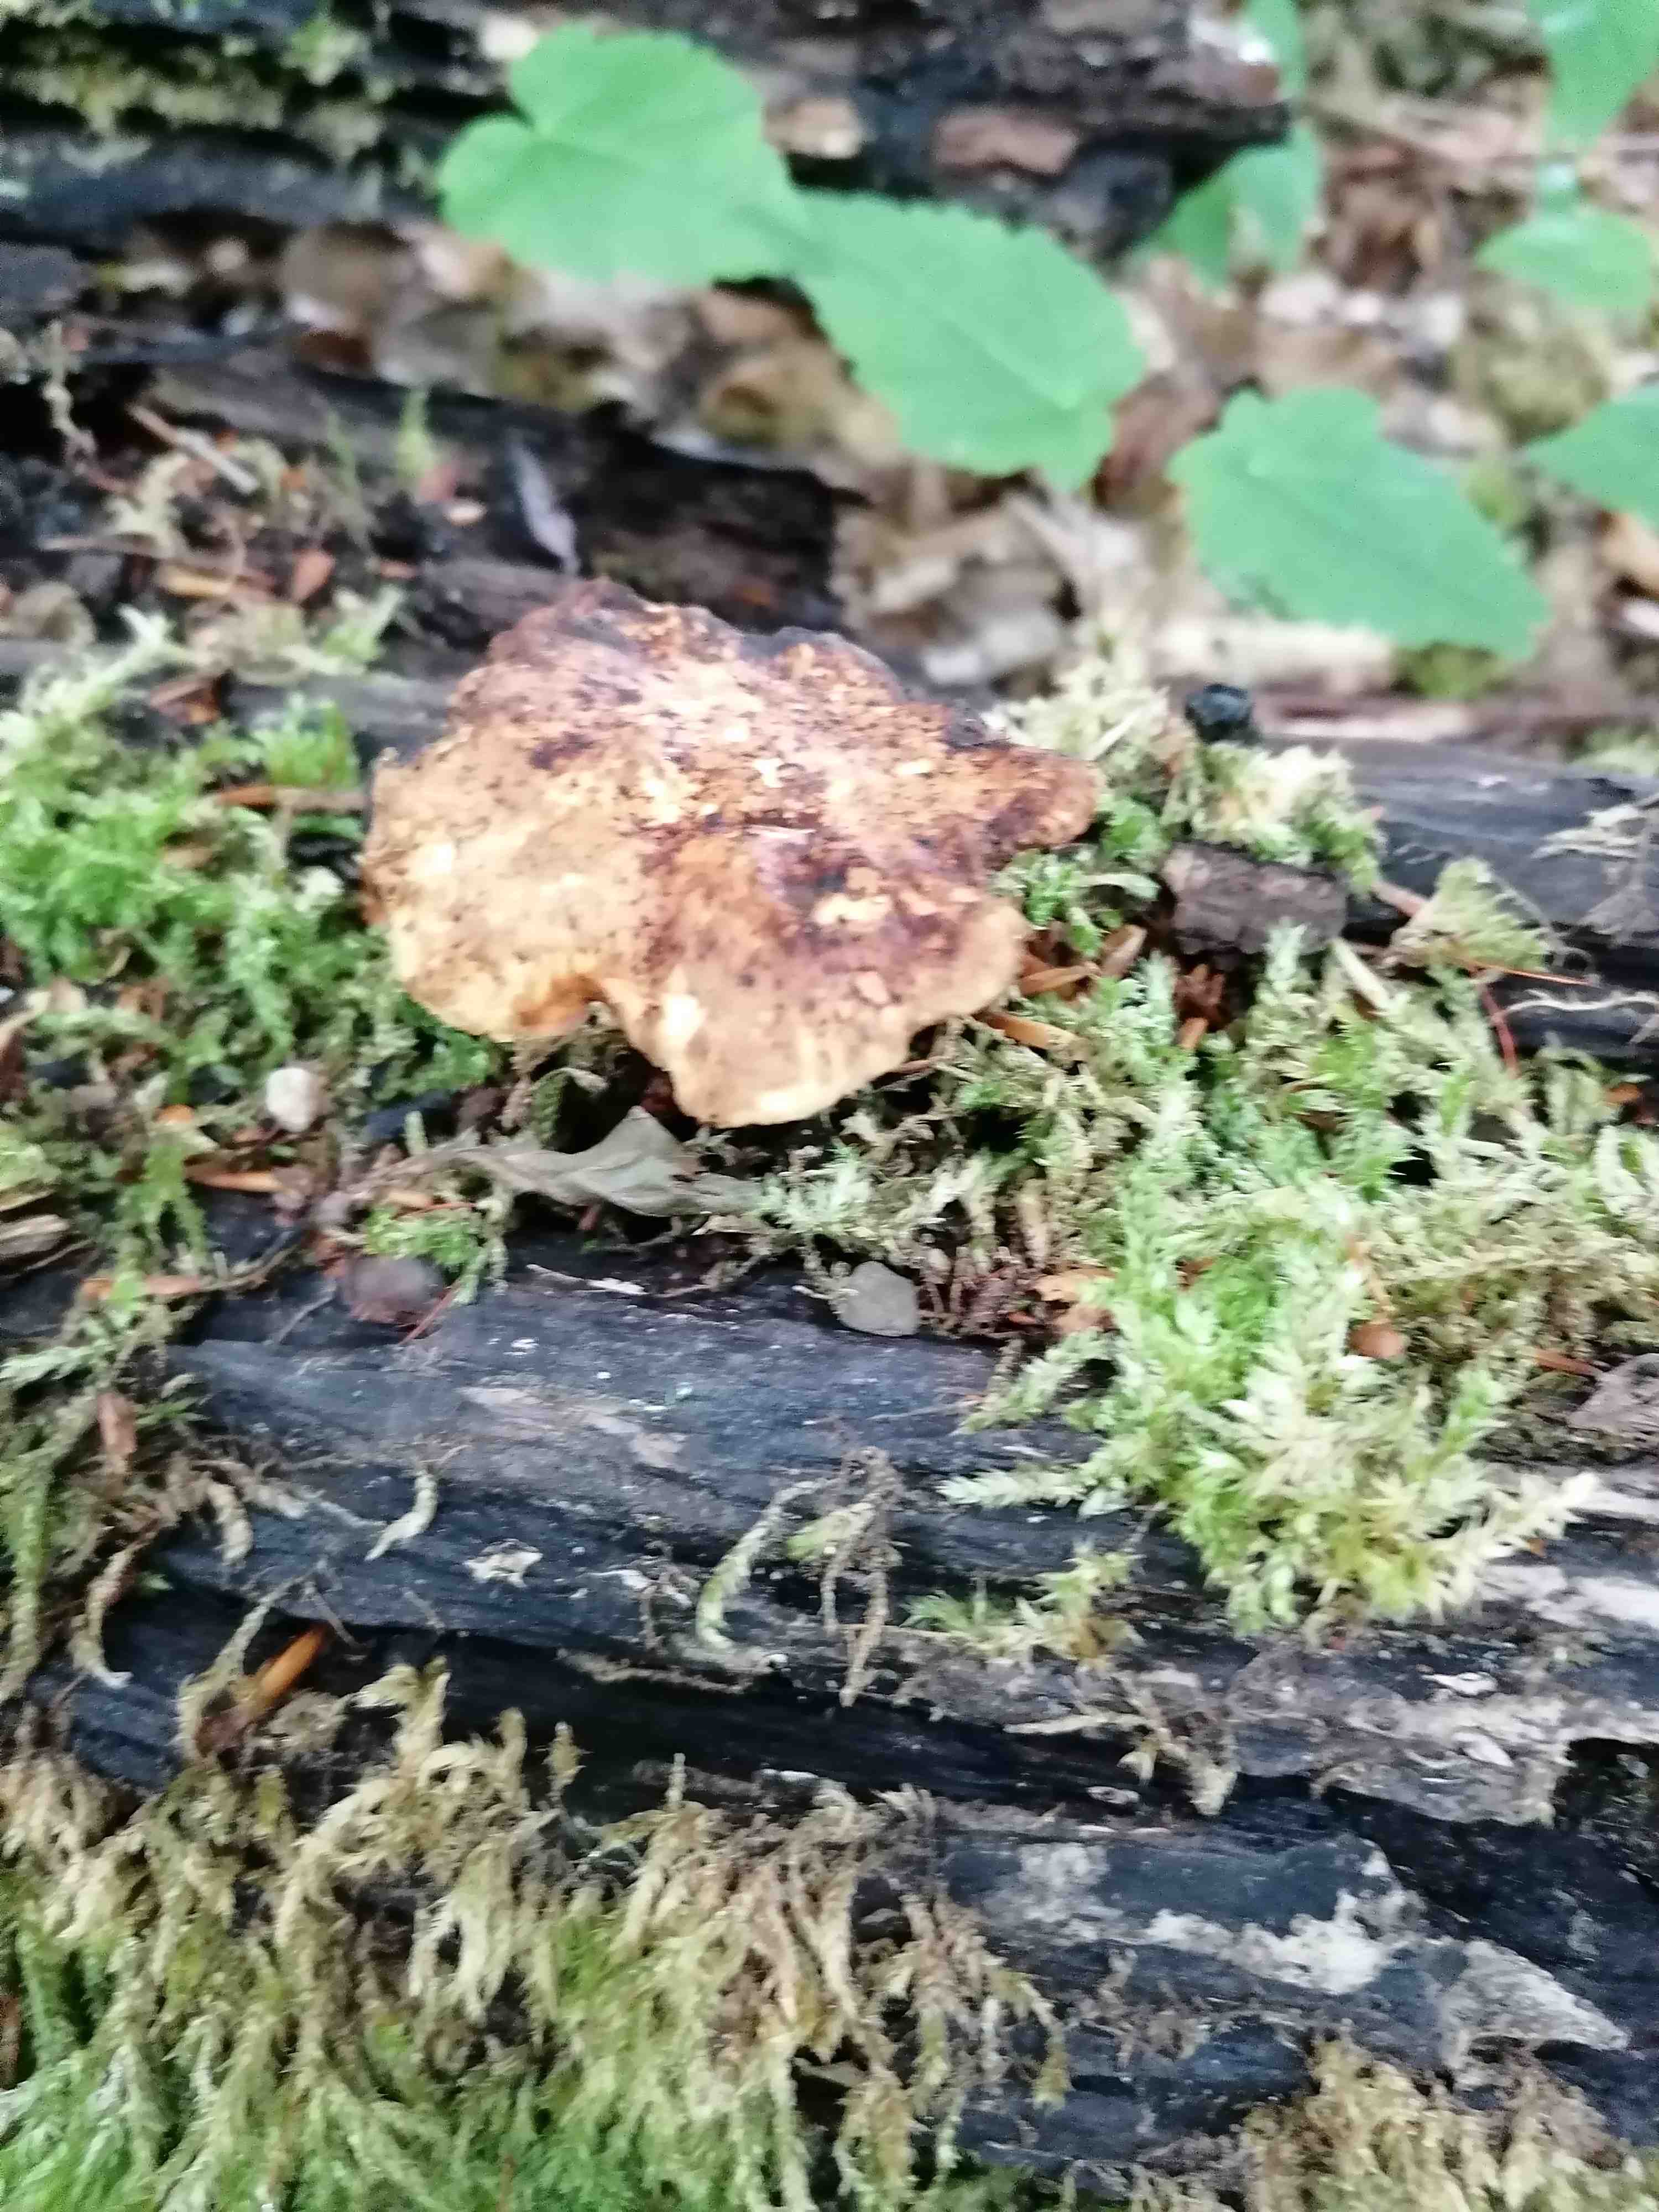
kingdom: Fungi
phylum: Basidiomycota
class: Agaricomycetes
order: Polyporales
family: Polyporaceae
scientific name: Polyporaceae
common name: poresvampfamilien
